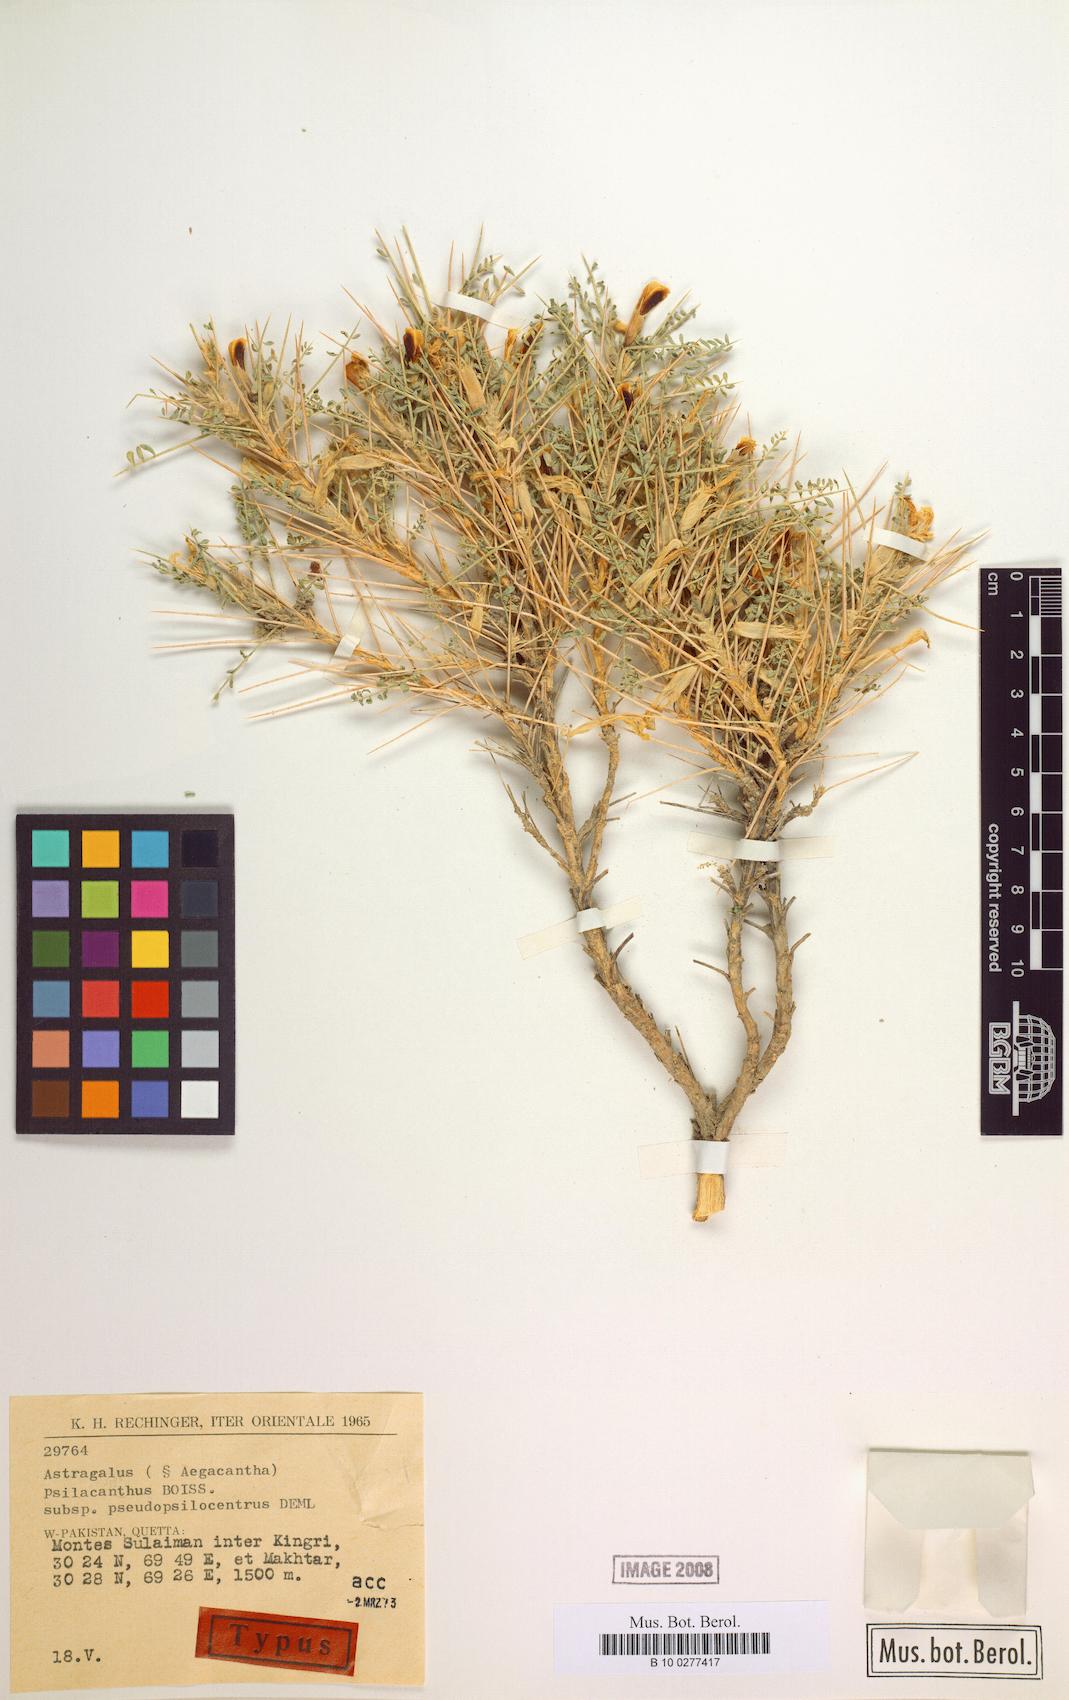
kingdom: Plantae
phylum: Tracheophyta
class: Magnoliopsida
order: Fabales
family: Fabaceae
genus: Astragalus
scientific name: Astragalus psilacanthus
